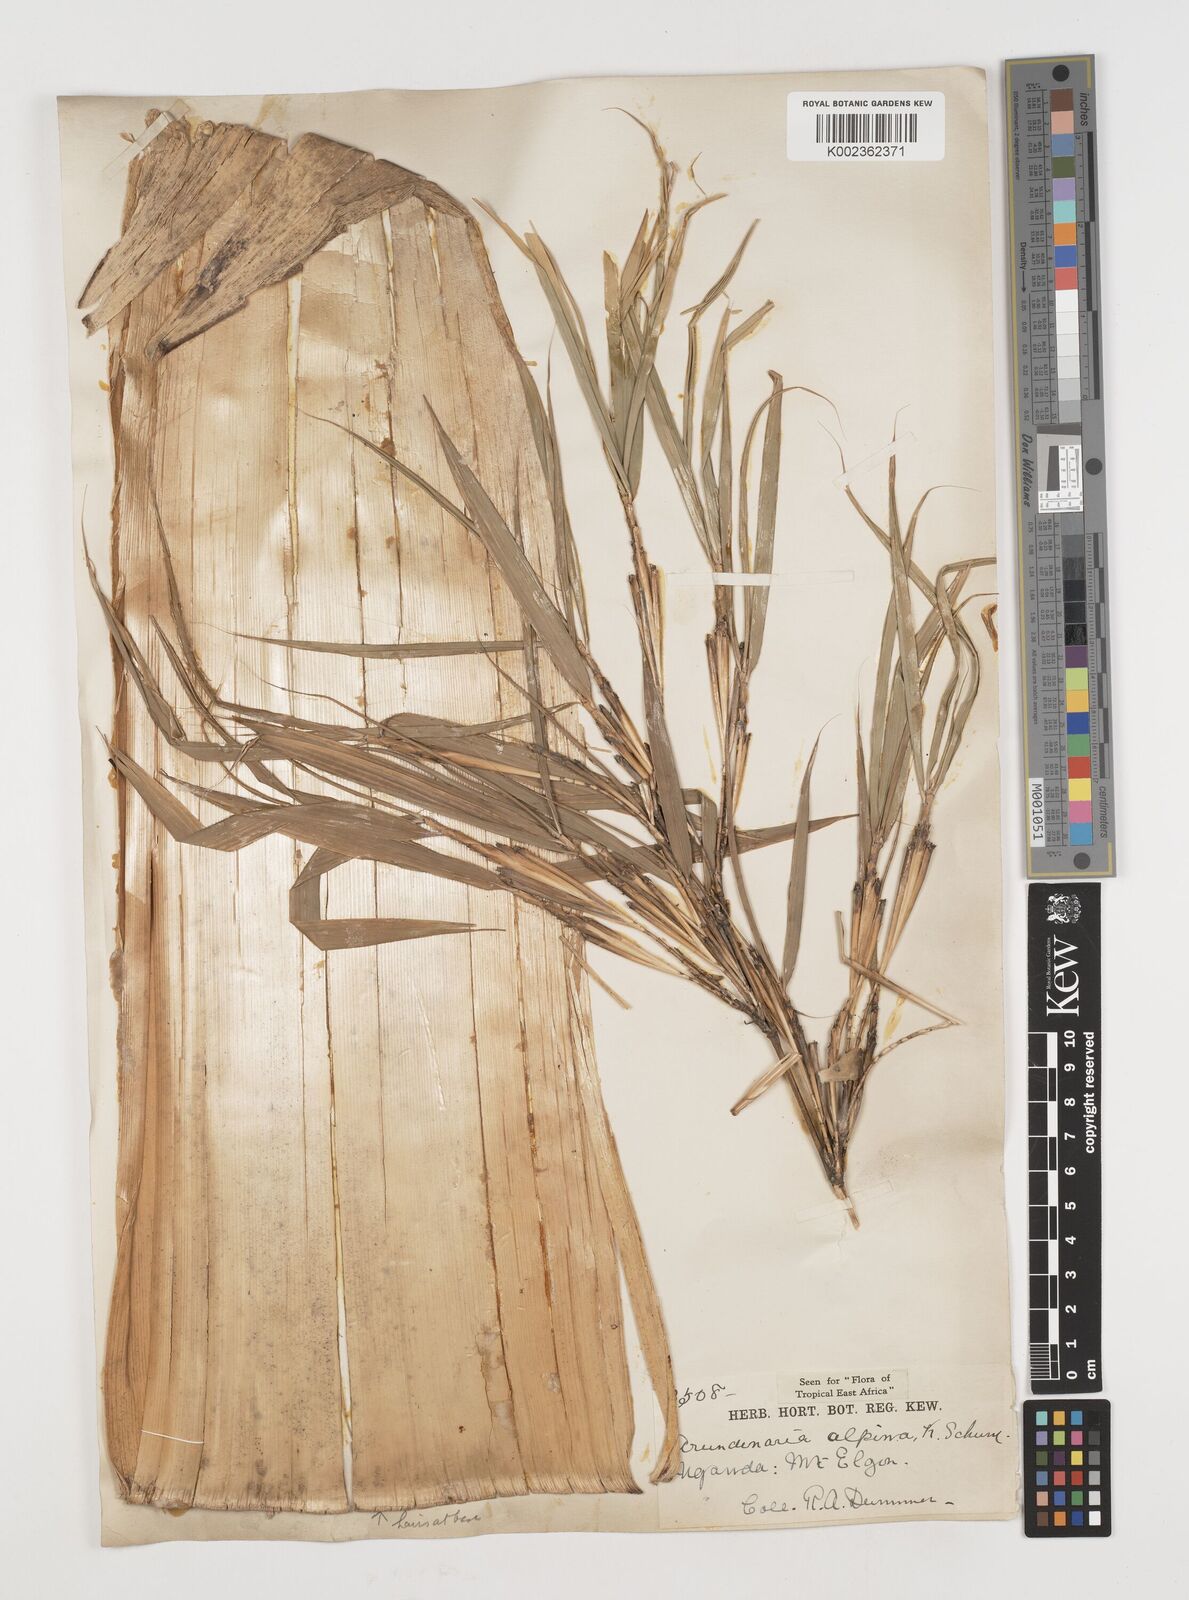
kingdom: Plantae
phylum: Tracheophyta
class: Liliopsida
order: Poales
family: Poaceae
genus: Oldeania
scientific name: Oldeania alpina
